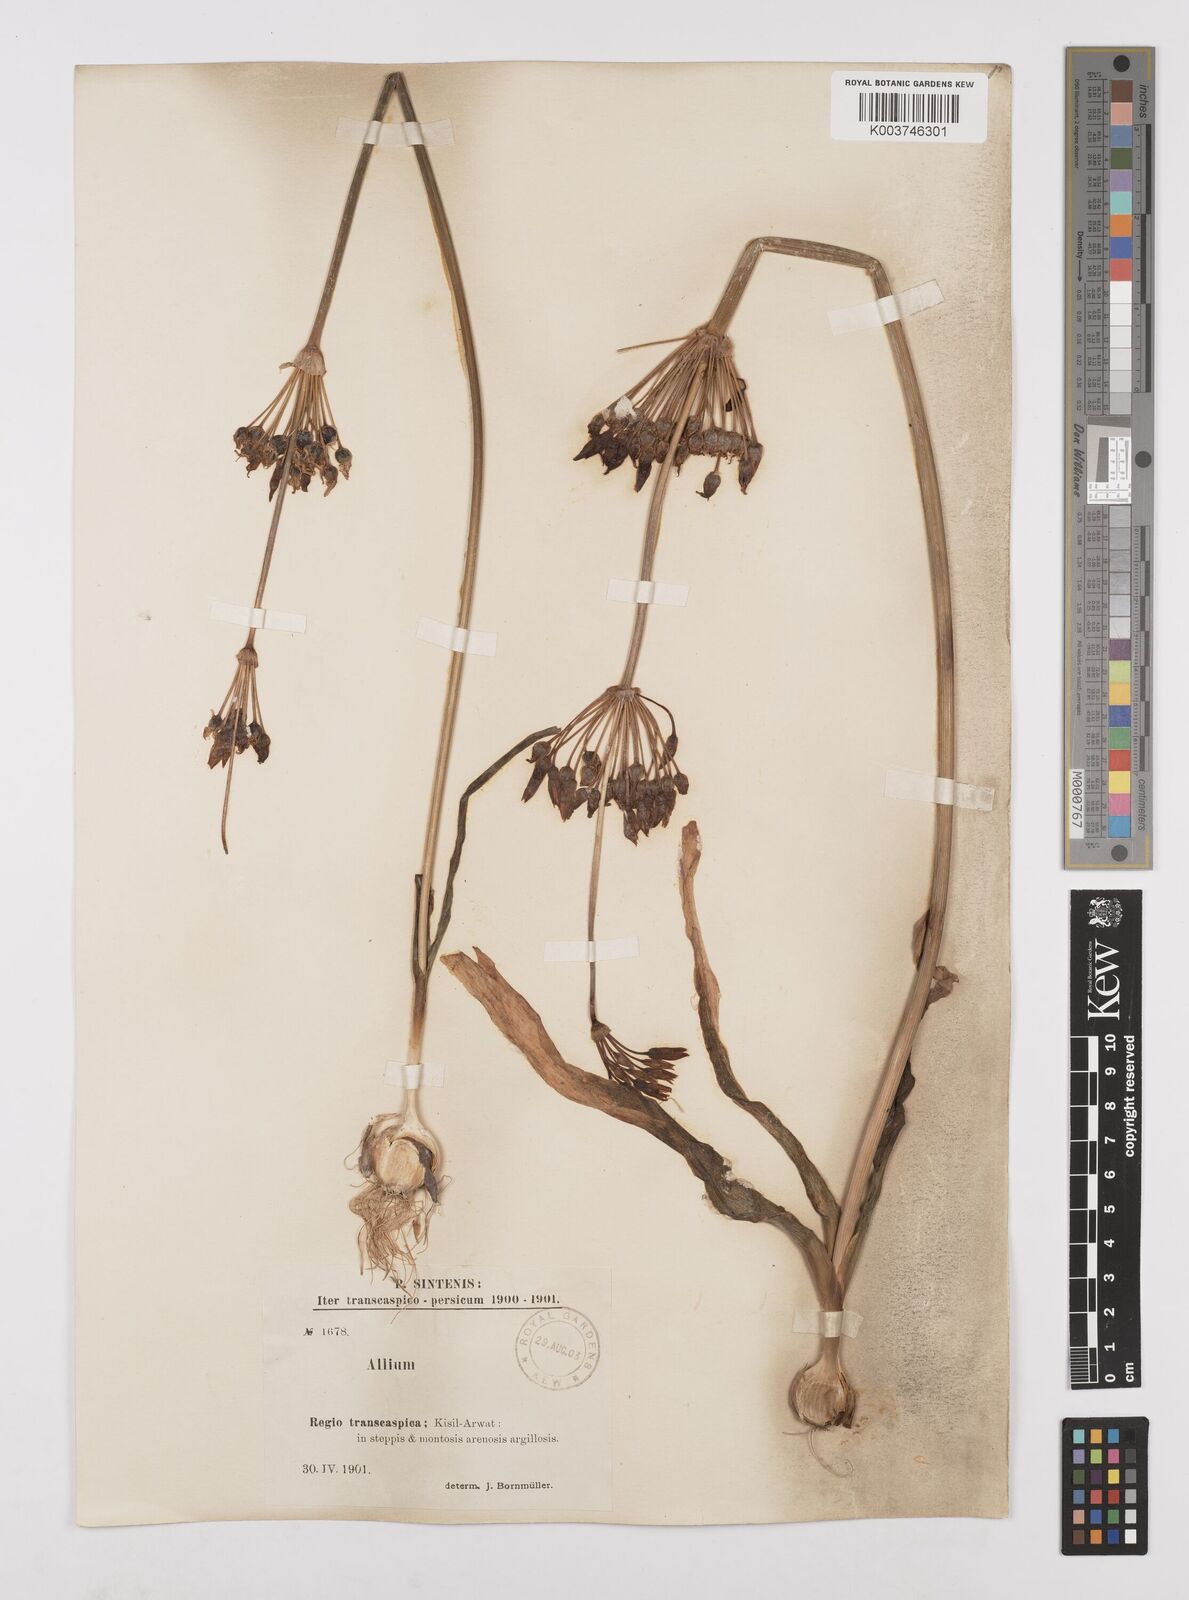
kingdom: Plantae
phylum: Tracheophyta
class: Liliopsida
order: Asparagales
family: Amaryllidaceae
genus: Allium
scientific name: Allium regelii
